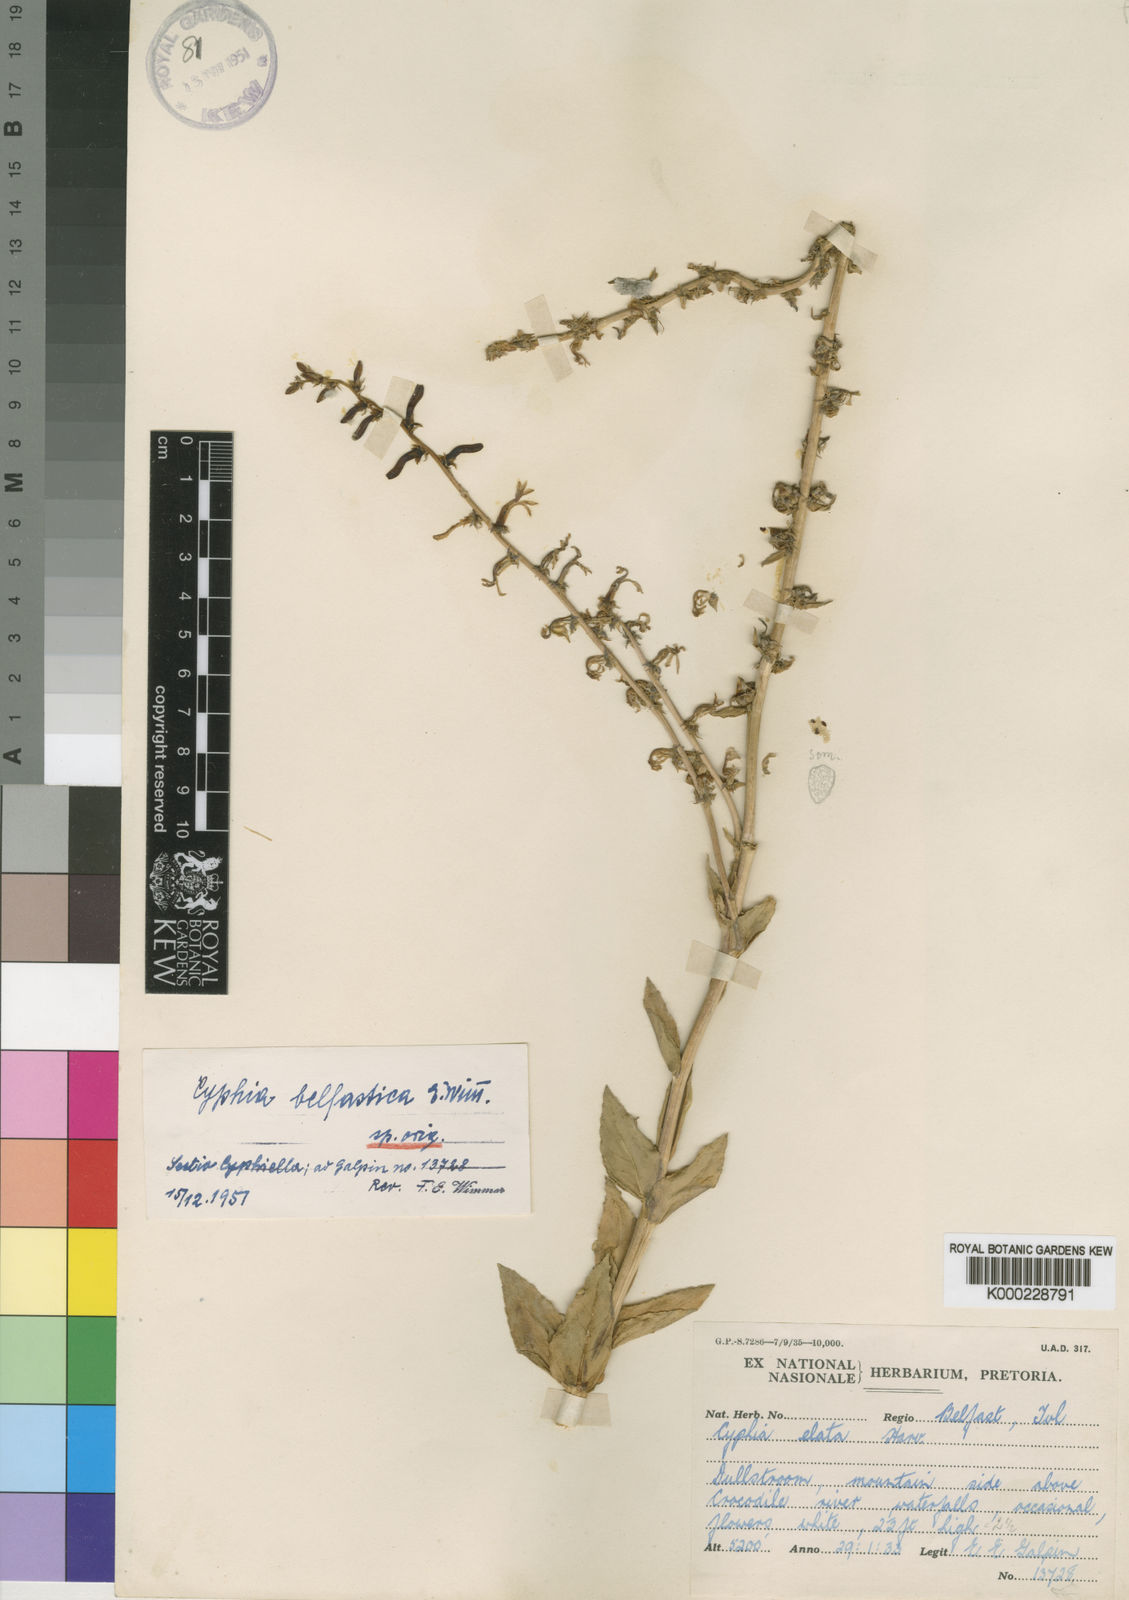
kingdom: Plantae
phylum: Tracheophyta
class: Magnoliopsida
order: Asterales
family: Campanulaceae
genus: Cyphia
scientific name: Cyphia belfastica
